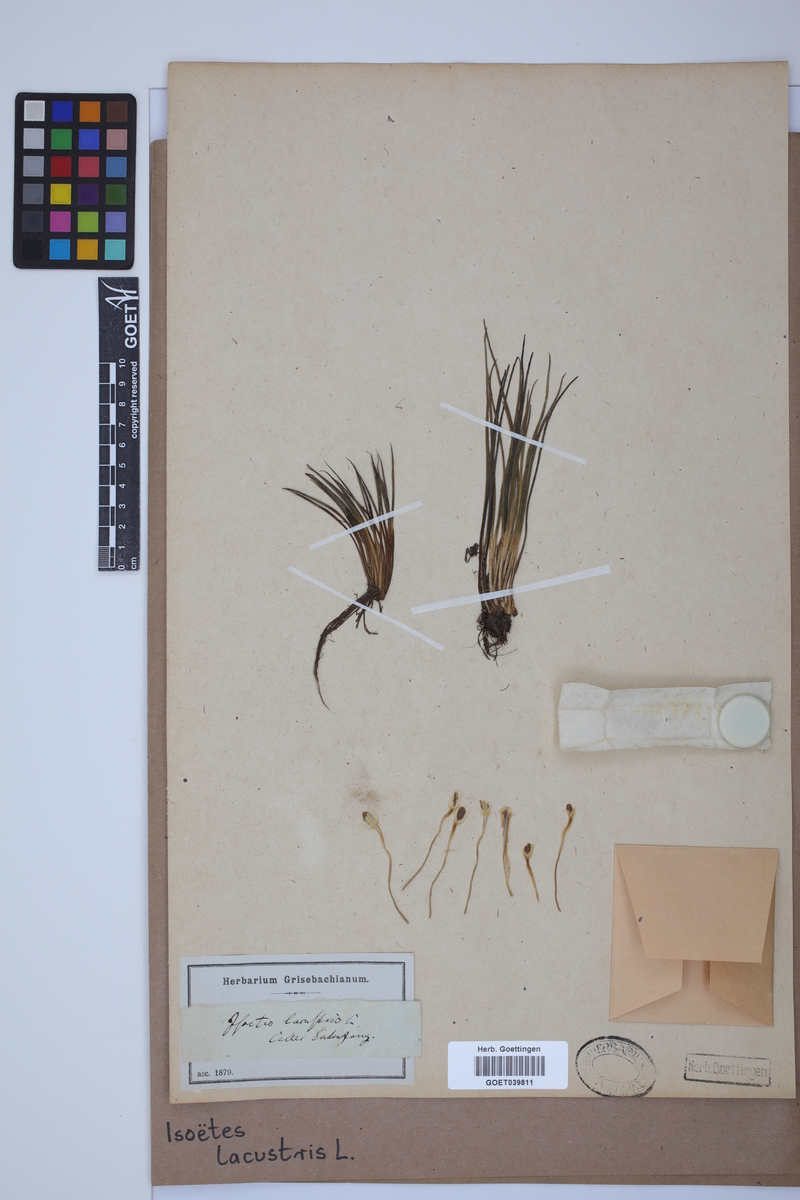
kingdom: Plantae
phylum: Tracheophyta
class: Lycopodiopsida
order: Isoetales
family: Isoetaceae
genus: Isoetes
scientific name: Isoetes lacustris
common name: Common quillwort
